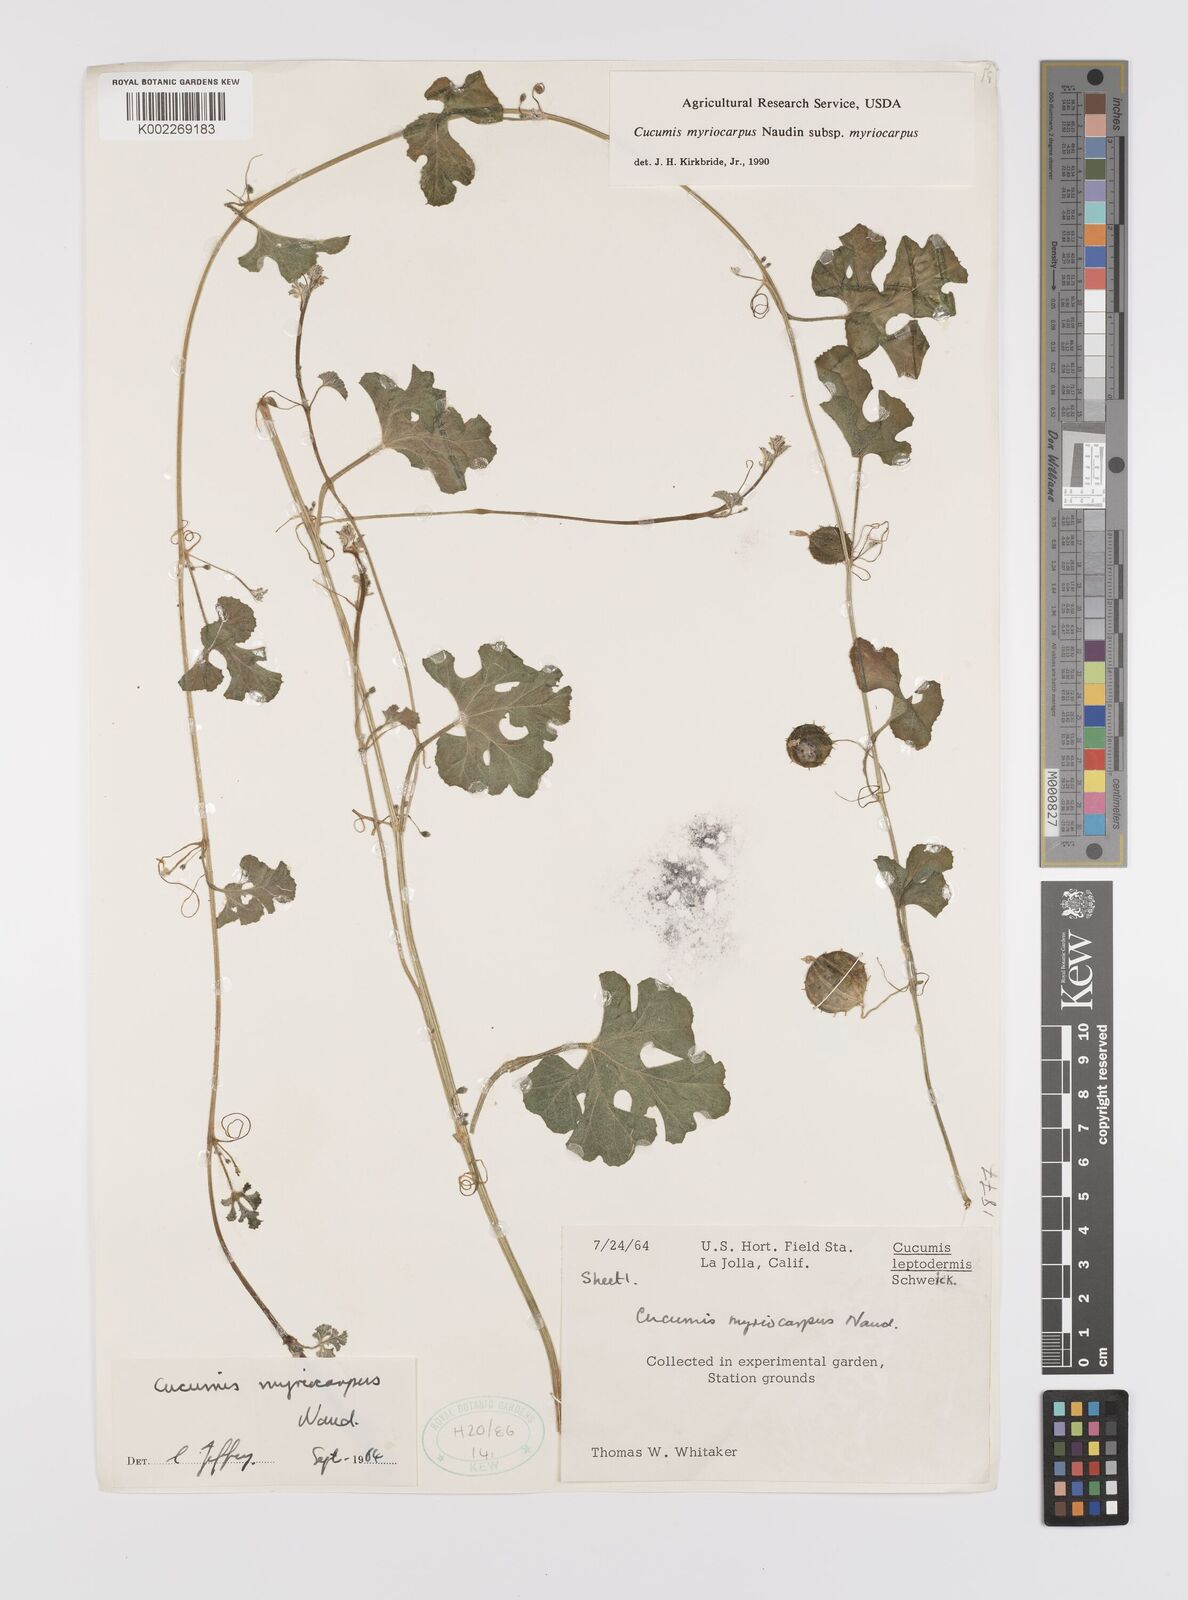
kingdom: Plantae
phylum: Tracheophyta
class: Magnoliopsida
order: Cucurbitales
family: Cucurbitaceae
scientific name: Cucurbitaceae
